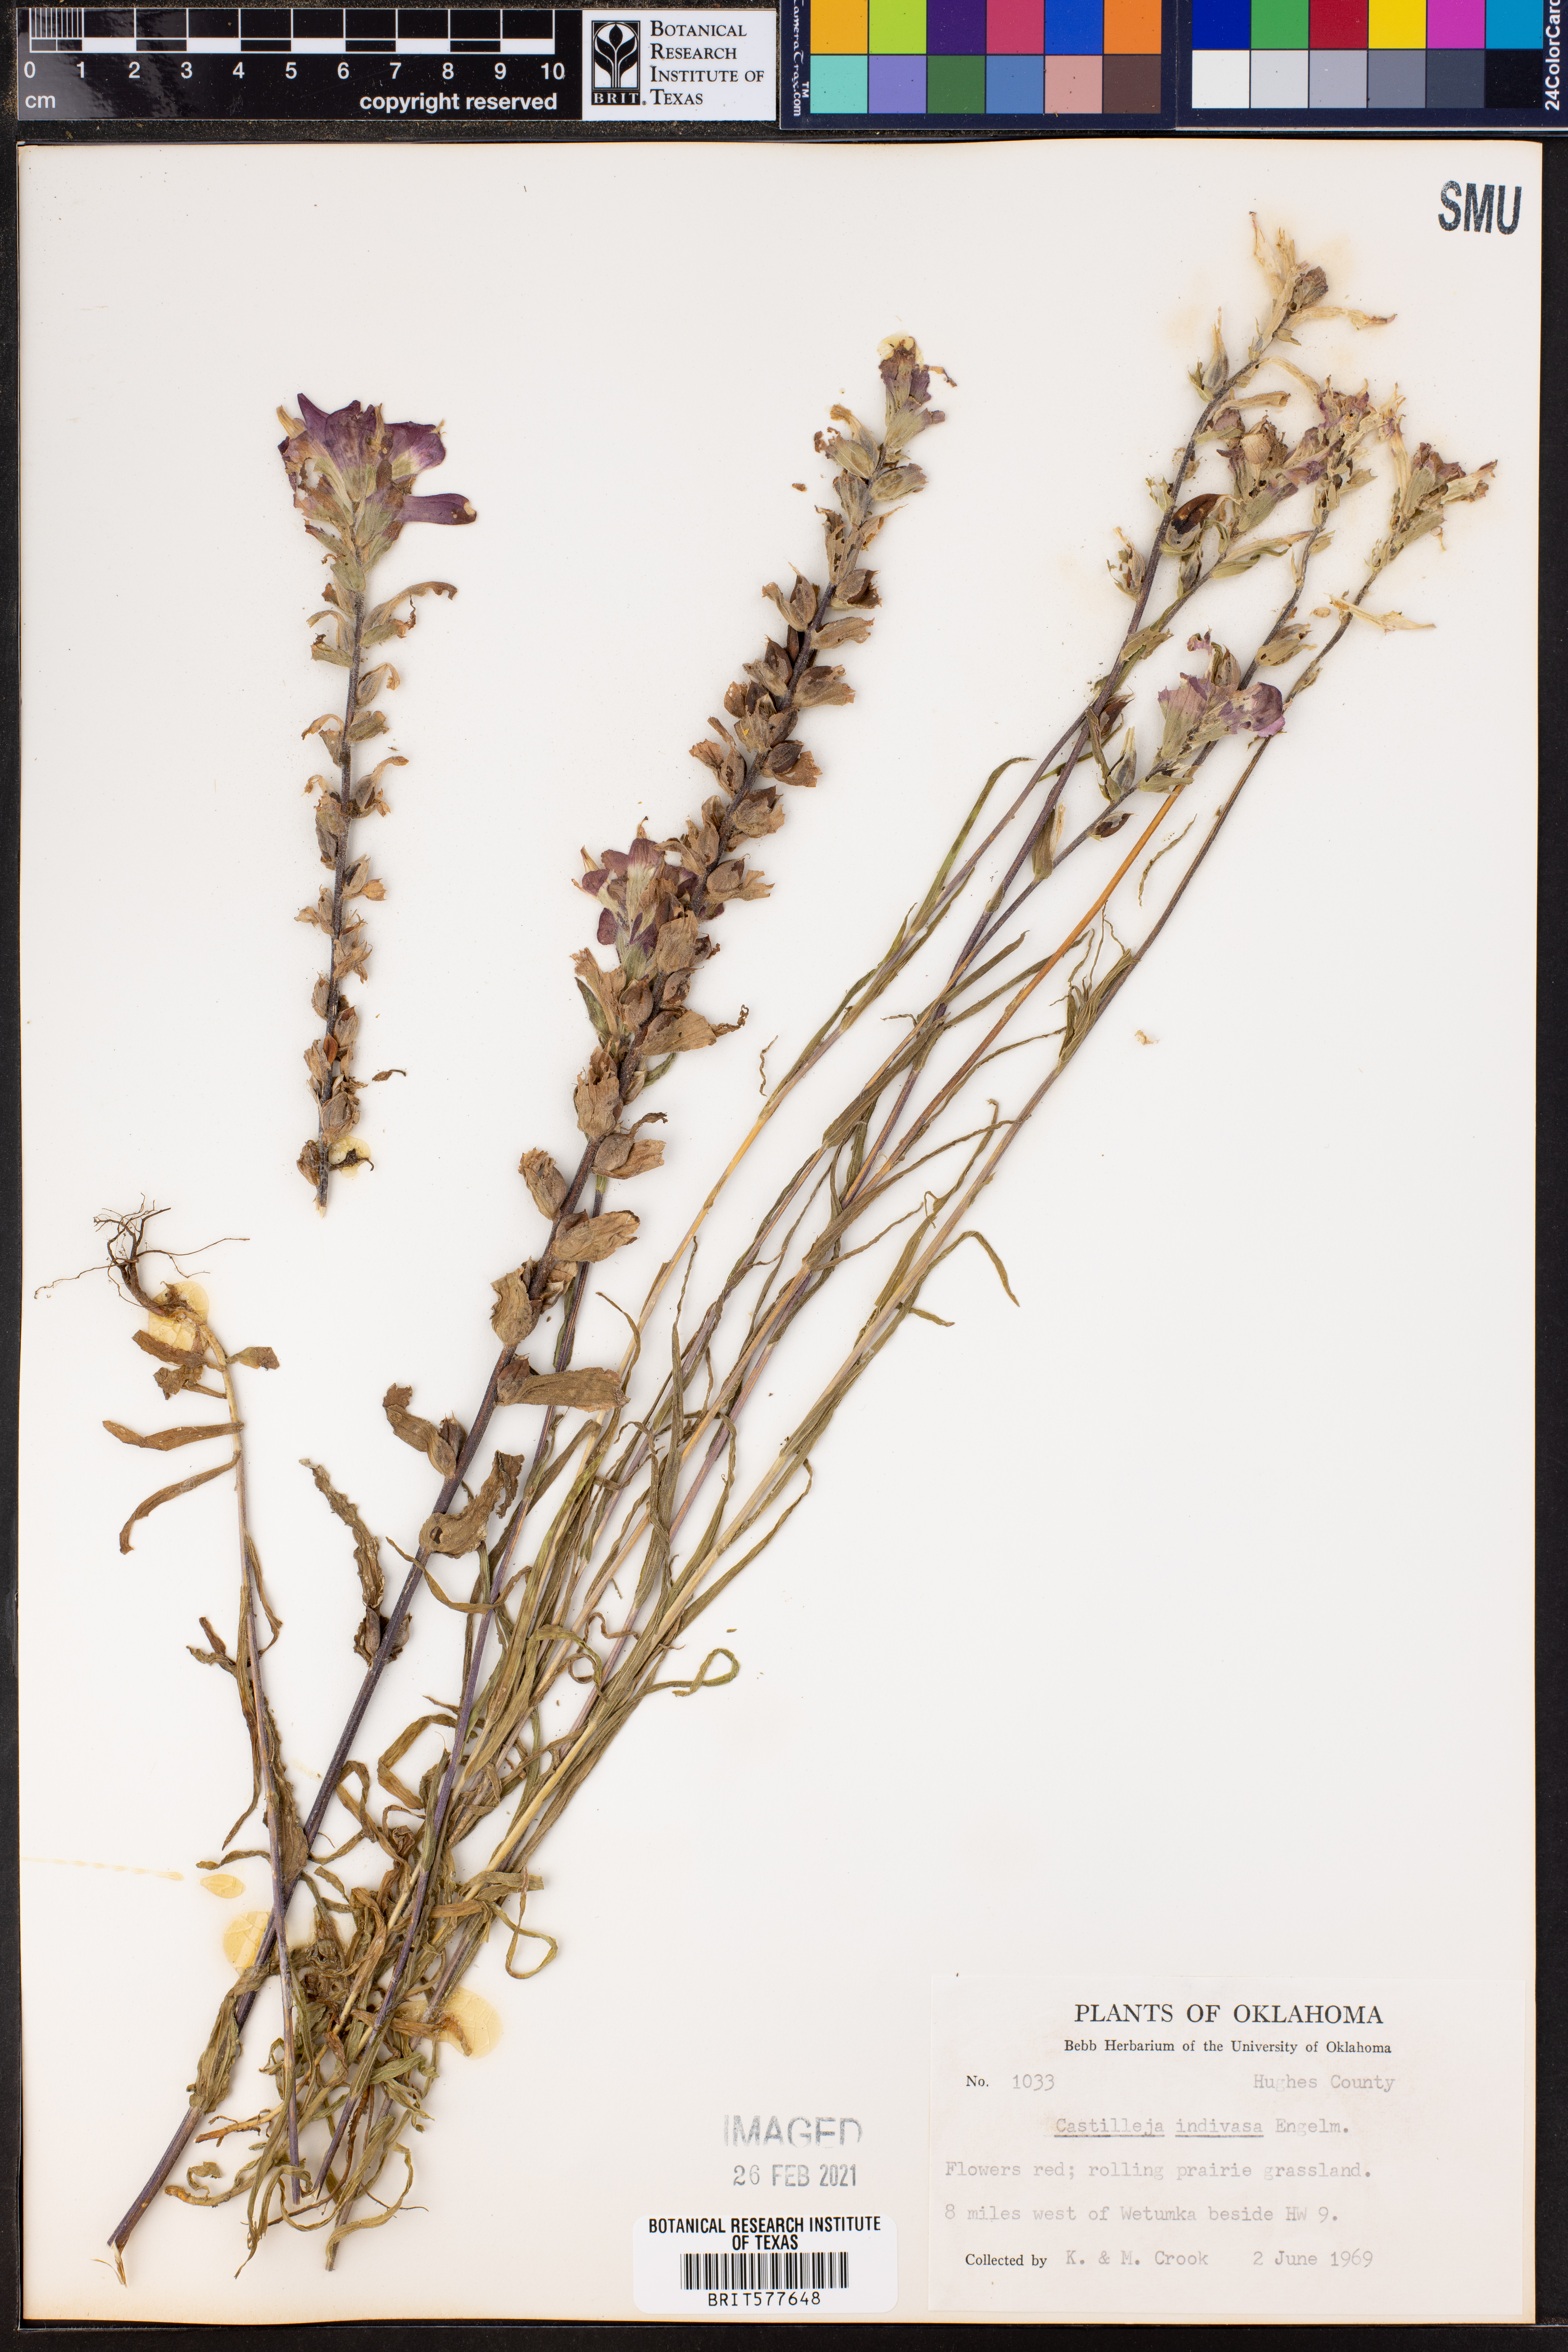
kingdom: Plantae
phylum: Tracheophyta
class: Magnoliopsida
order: Lamiales
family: Orobanchaceae
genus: Castilleja
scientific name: Castilleja indivisa
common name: Texas paintbrush
